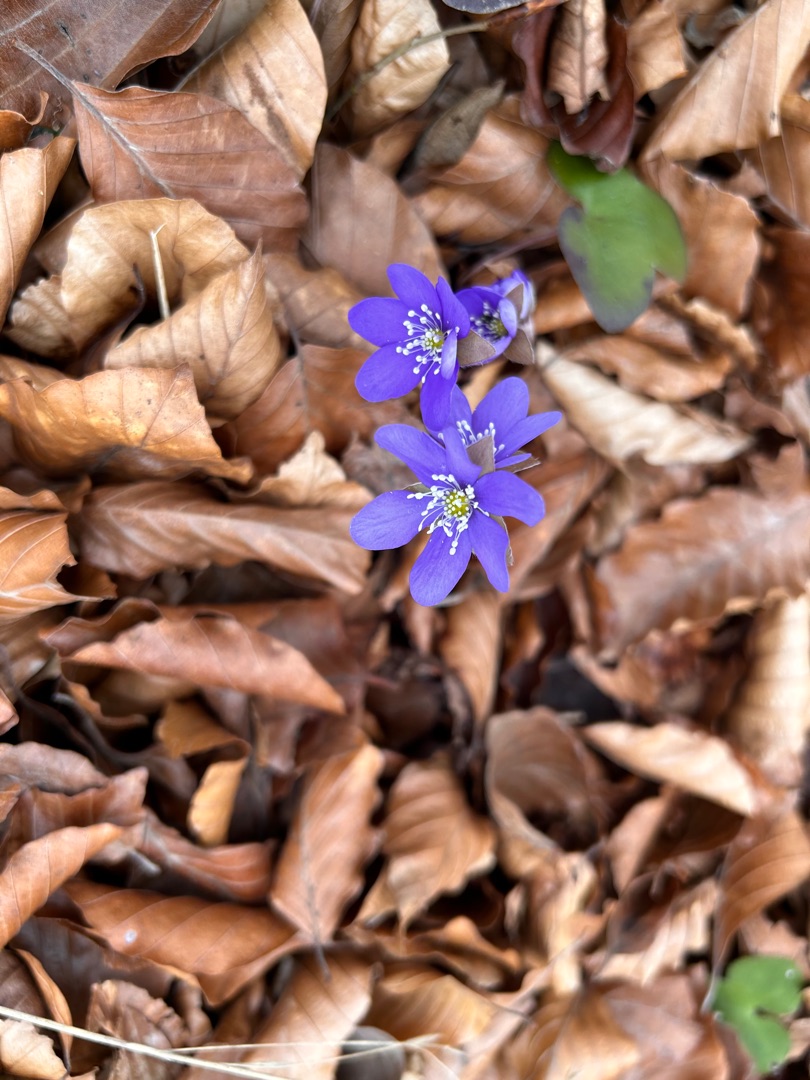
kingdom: Plantae
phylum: Tracheophyta
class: Magnoliopsida
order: Ranunculales
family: Ranunculaceae
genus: Hepatica
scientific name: Hepatica nobilis
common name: Blå anemone
